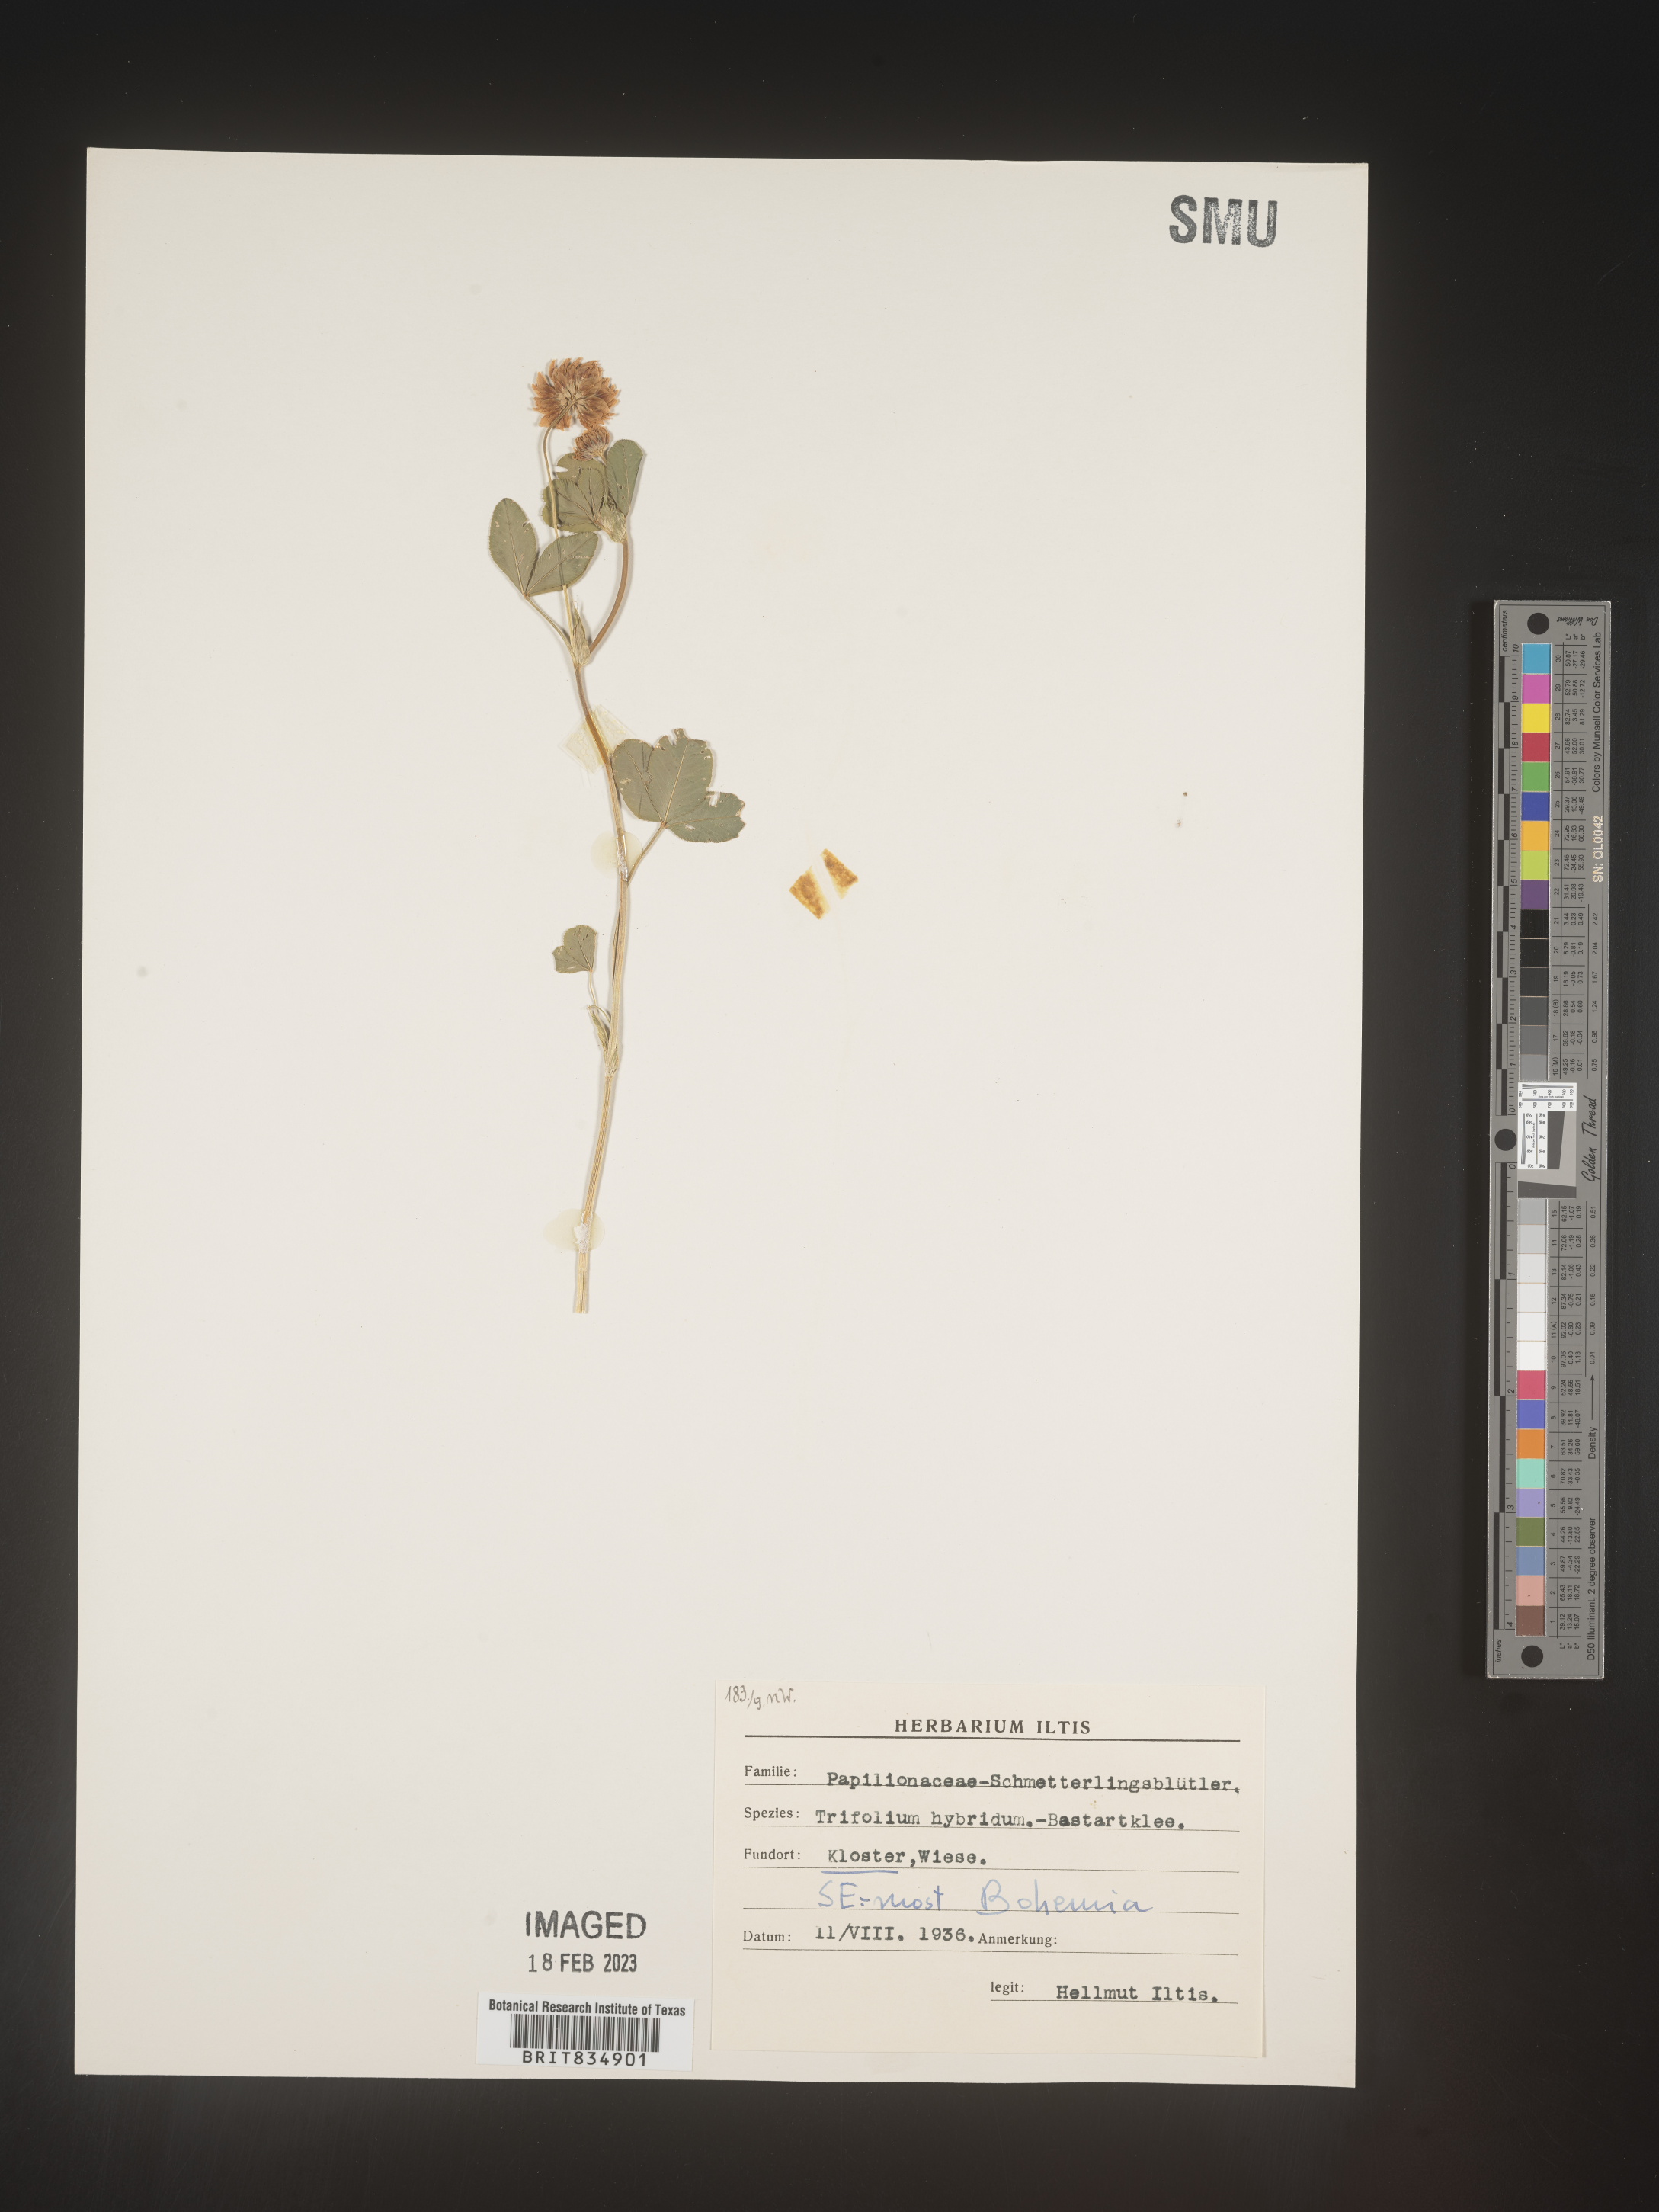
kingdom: Plantae
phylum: Tracheophyta
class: Magnoliopsida
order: Fabales
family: Fabaceae
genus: Trifolium
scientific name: Trifolium
